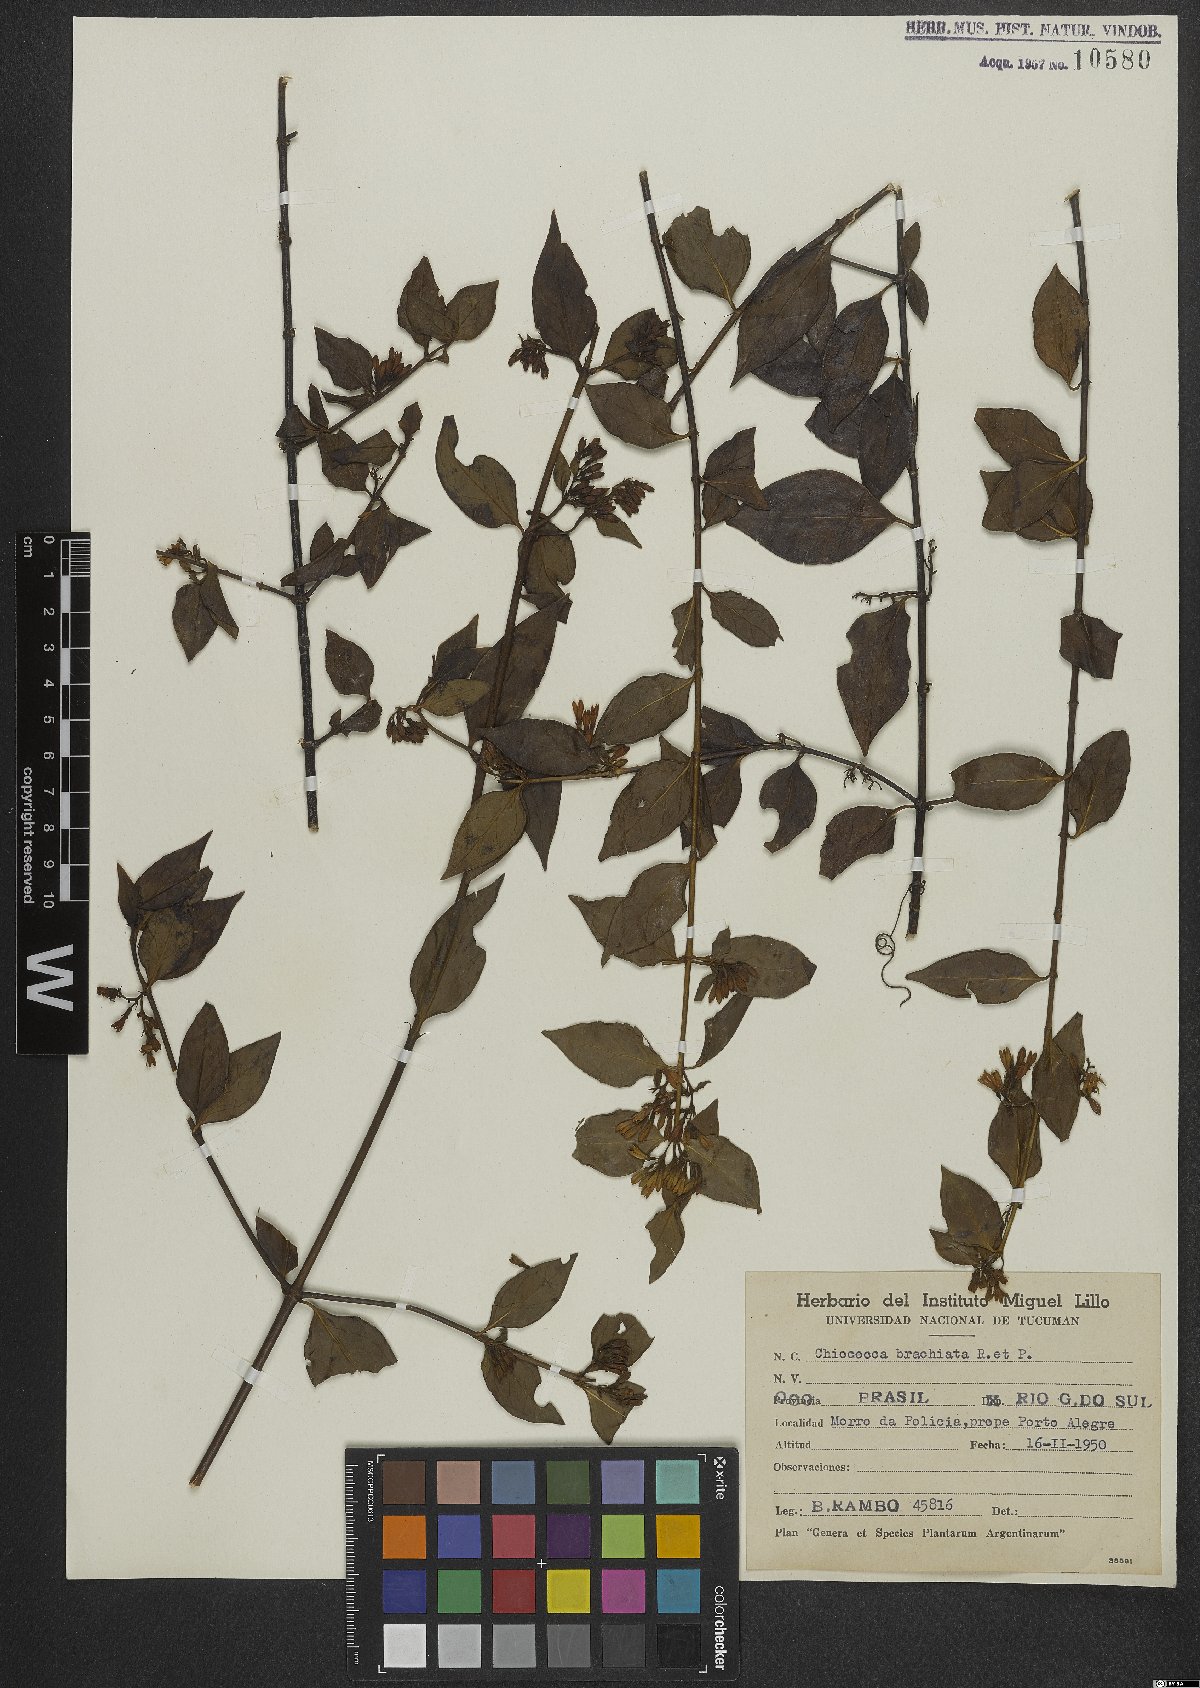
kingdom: Plantae
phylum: Tracheophyta
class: Magnoliopsida
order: Gentianales
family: Rubiaceae
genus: Chiococca
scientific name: Chiococca alba
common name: Snowberry
